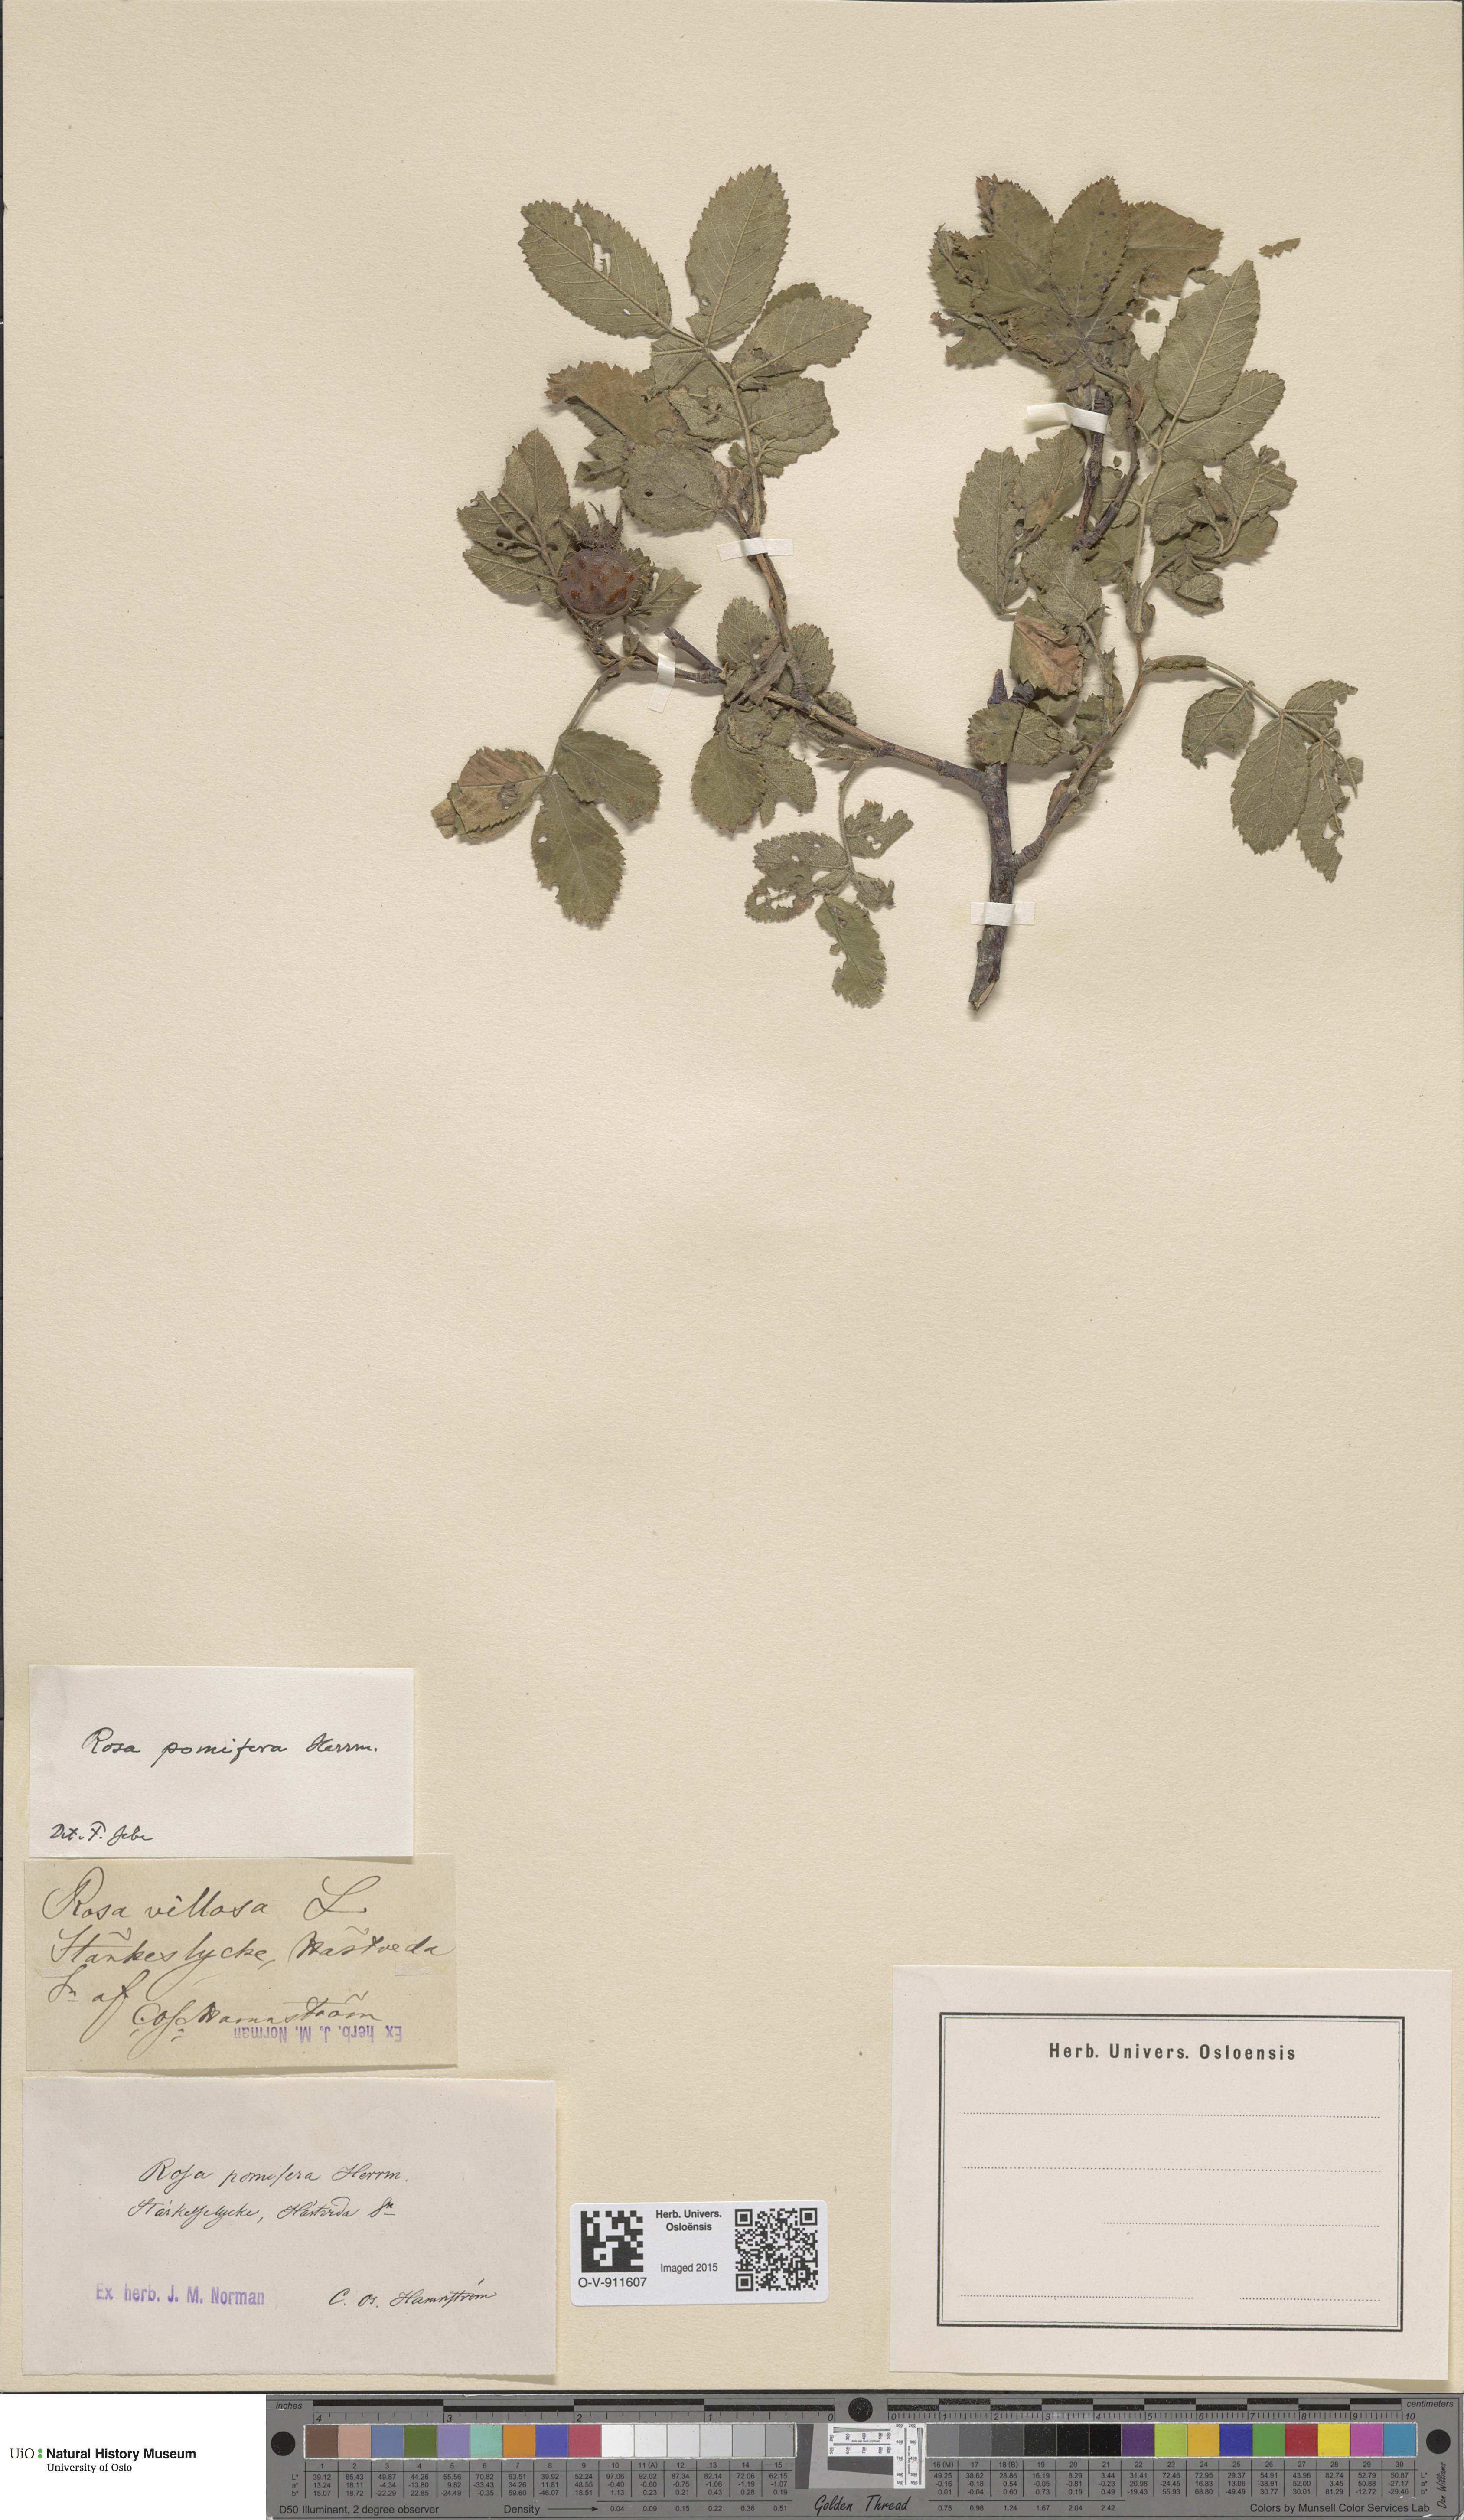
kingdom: Plantae
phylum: Tracheophyta
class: Magnoliopsida
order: Rosales
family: Rosaceae
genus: Rosa
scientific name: Rosa villosa
